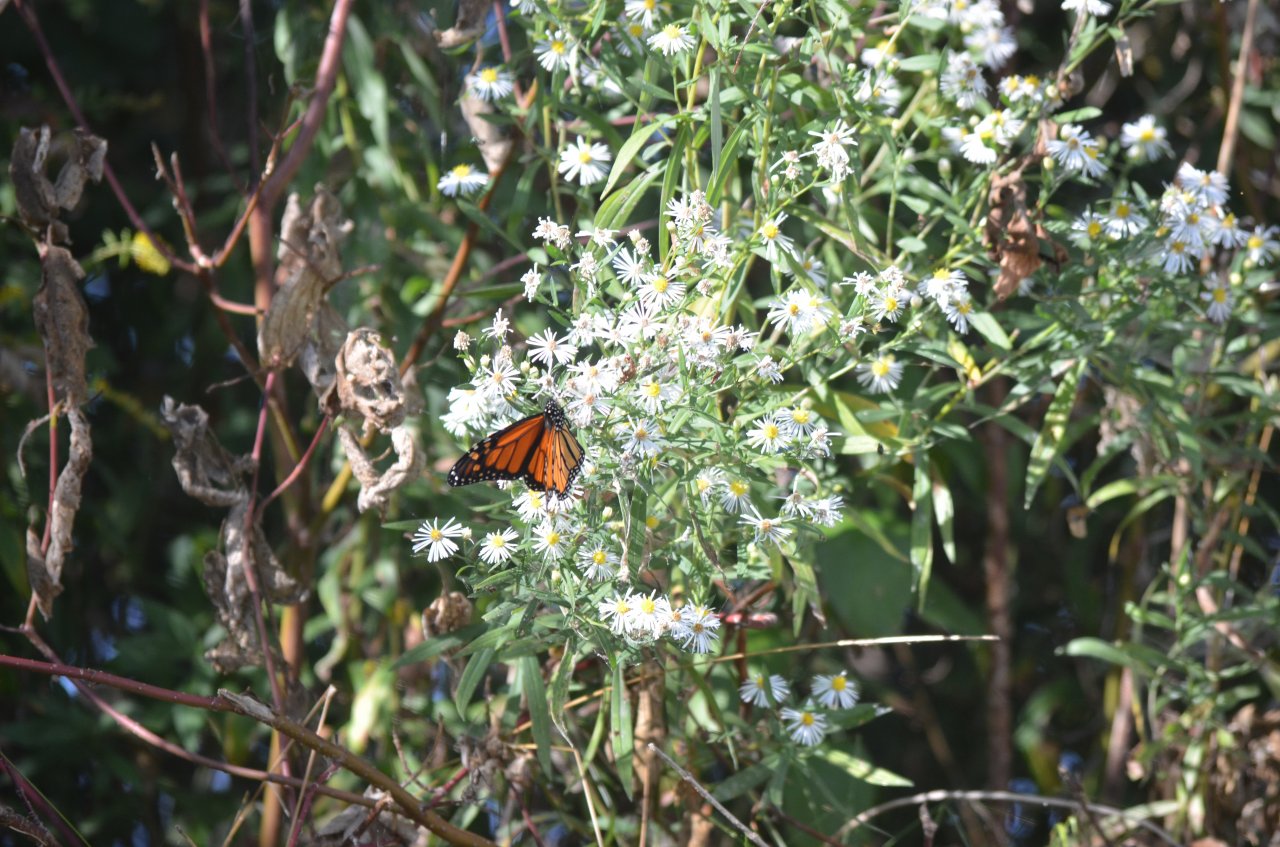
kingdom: Animalia
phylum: Arthropoda
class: Insecta
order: Lepidoptera
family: Nymphalidae
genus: Danaus
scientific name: Danaus plexippus
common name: Monarch
